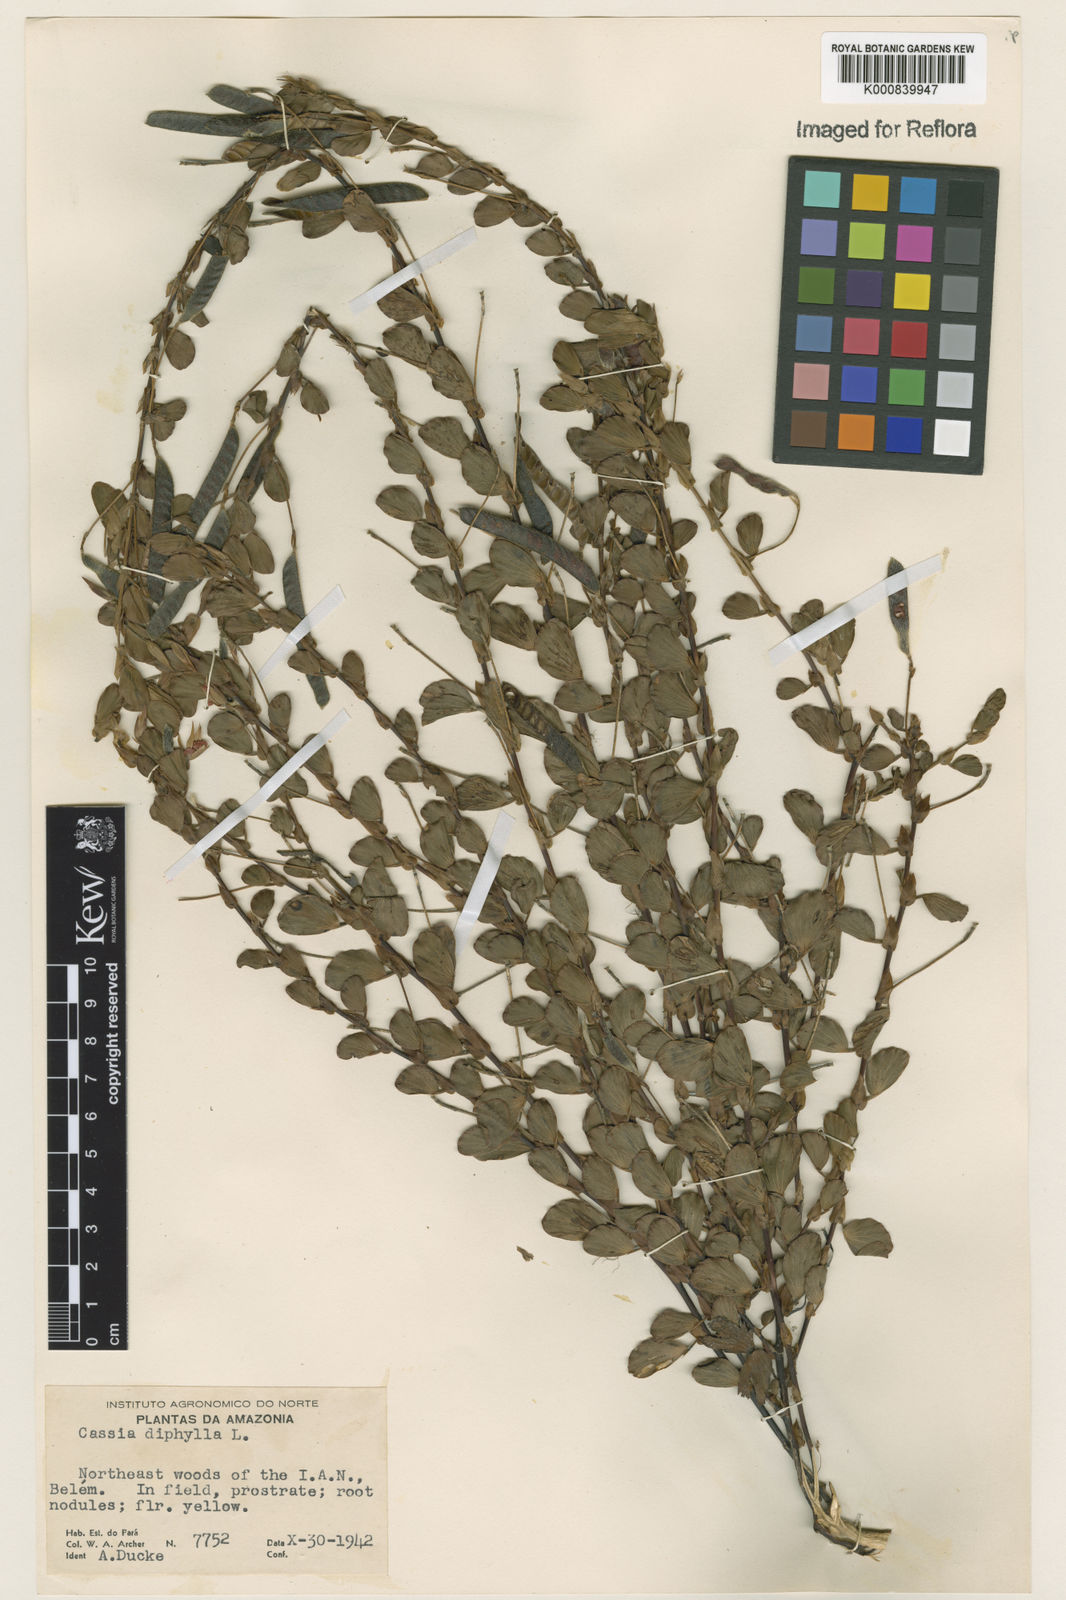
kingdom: Plantae
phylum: Tracheophyta
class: Magnoliopsida
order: Fabales
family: Fabaceae
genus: Chamaecrista
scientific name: Chamaecrista diphylla
